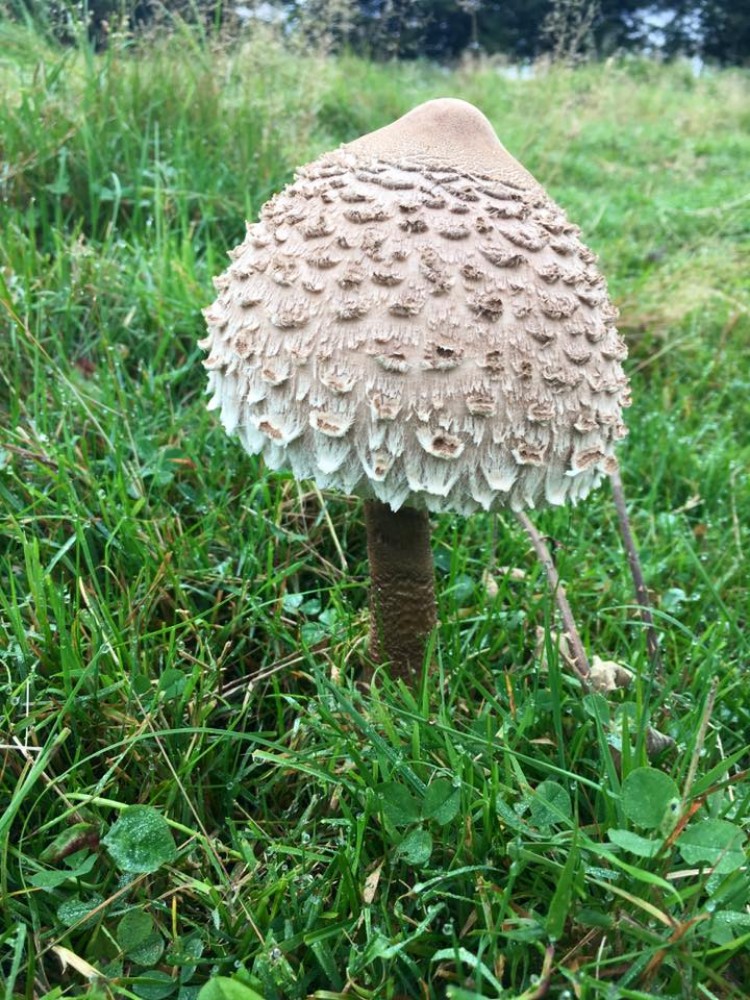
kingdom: Fungi
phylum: Basidiomycota
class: Agaricomycetes
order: Agaricales
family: Agaricaceae
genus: Macrolepiota
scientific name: Macrolepiota
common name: kæmpeparasolhat
